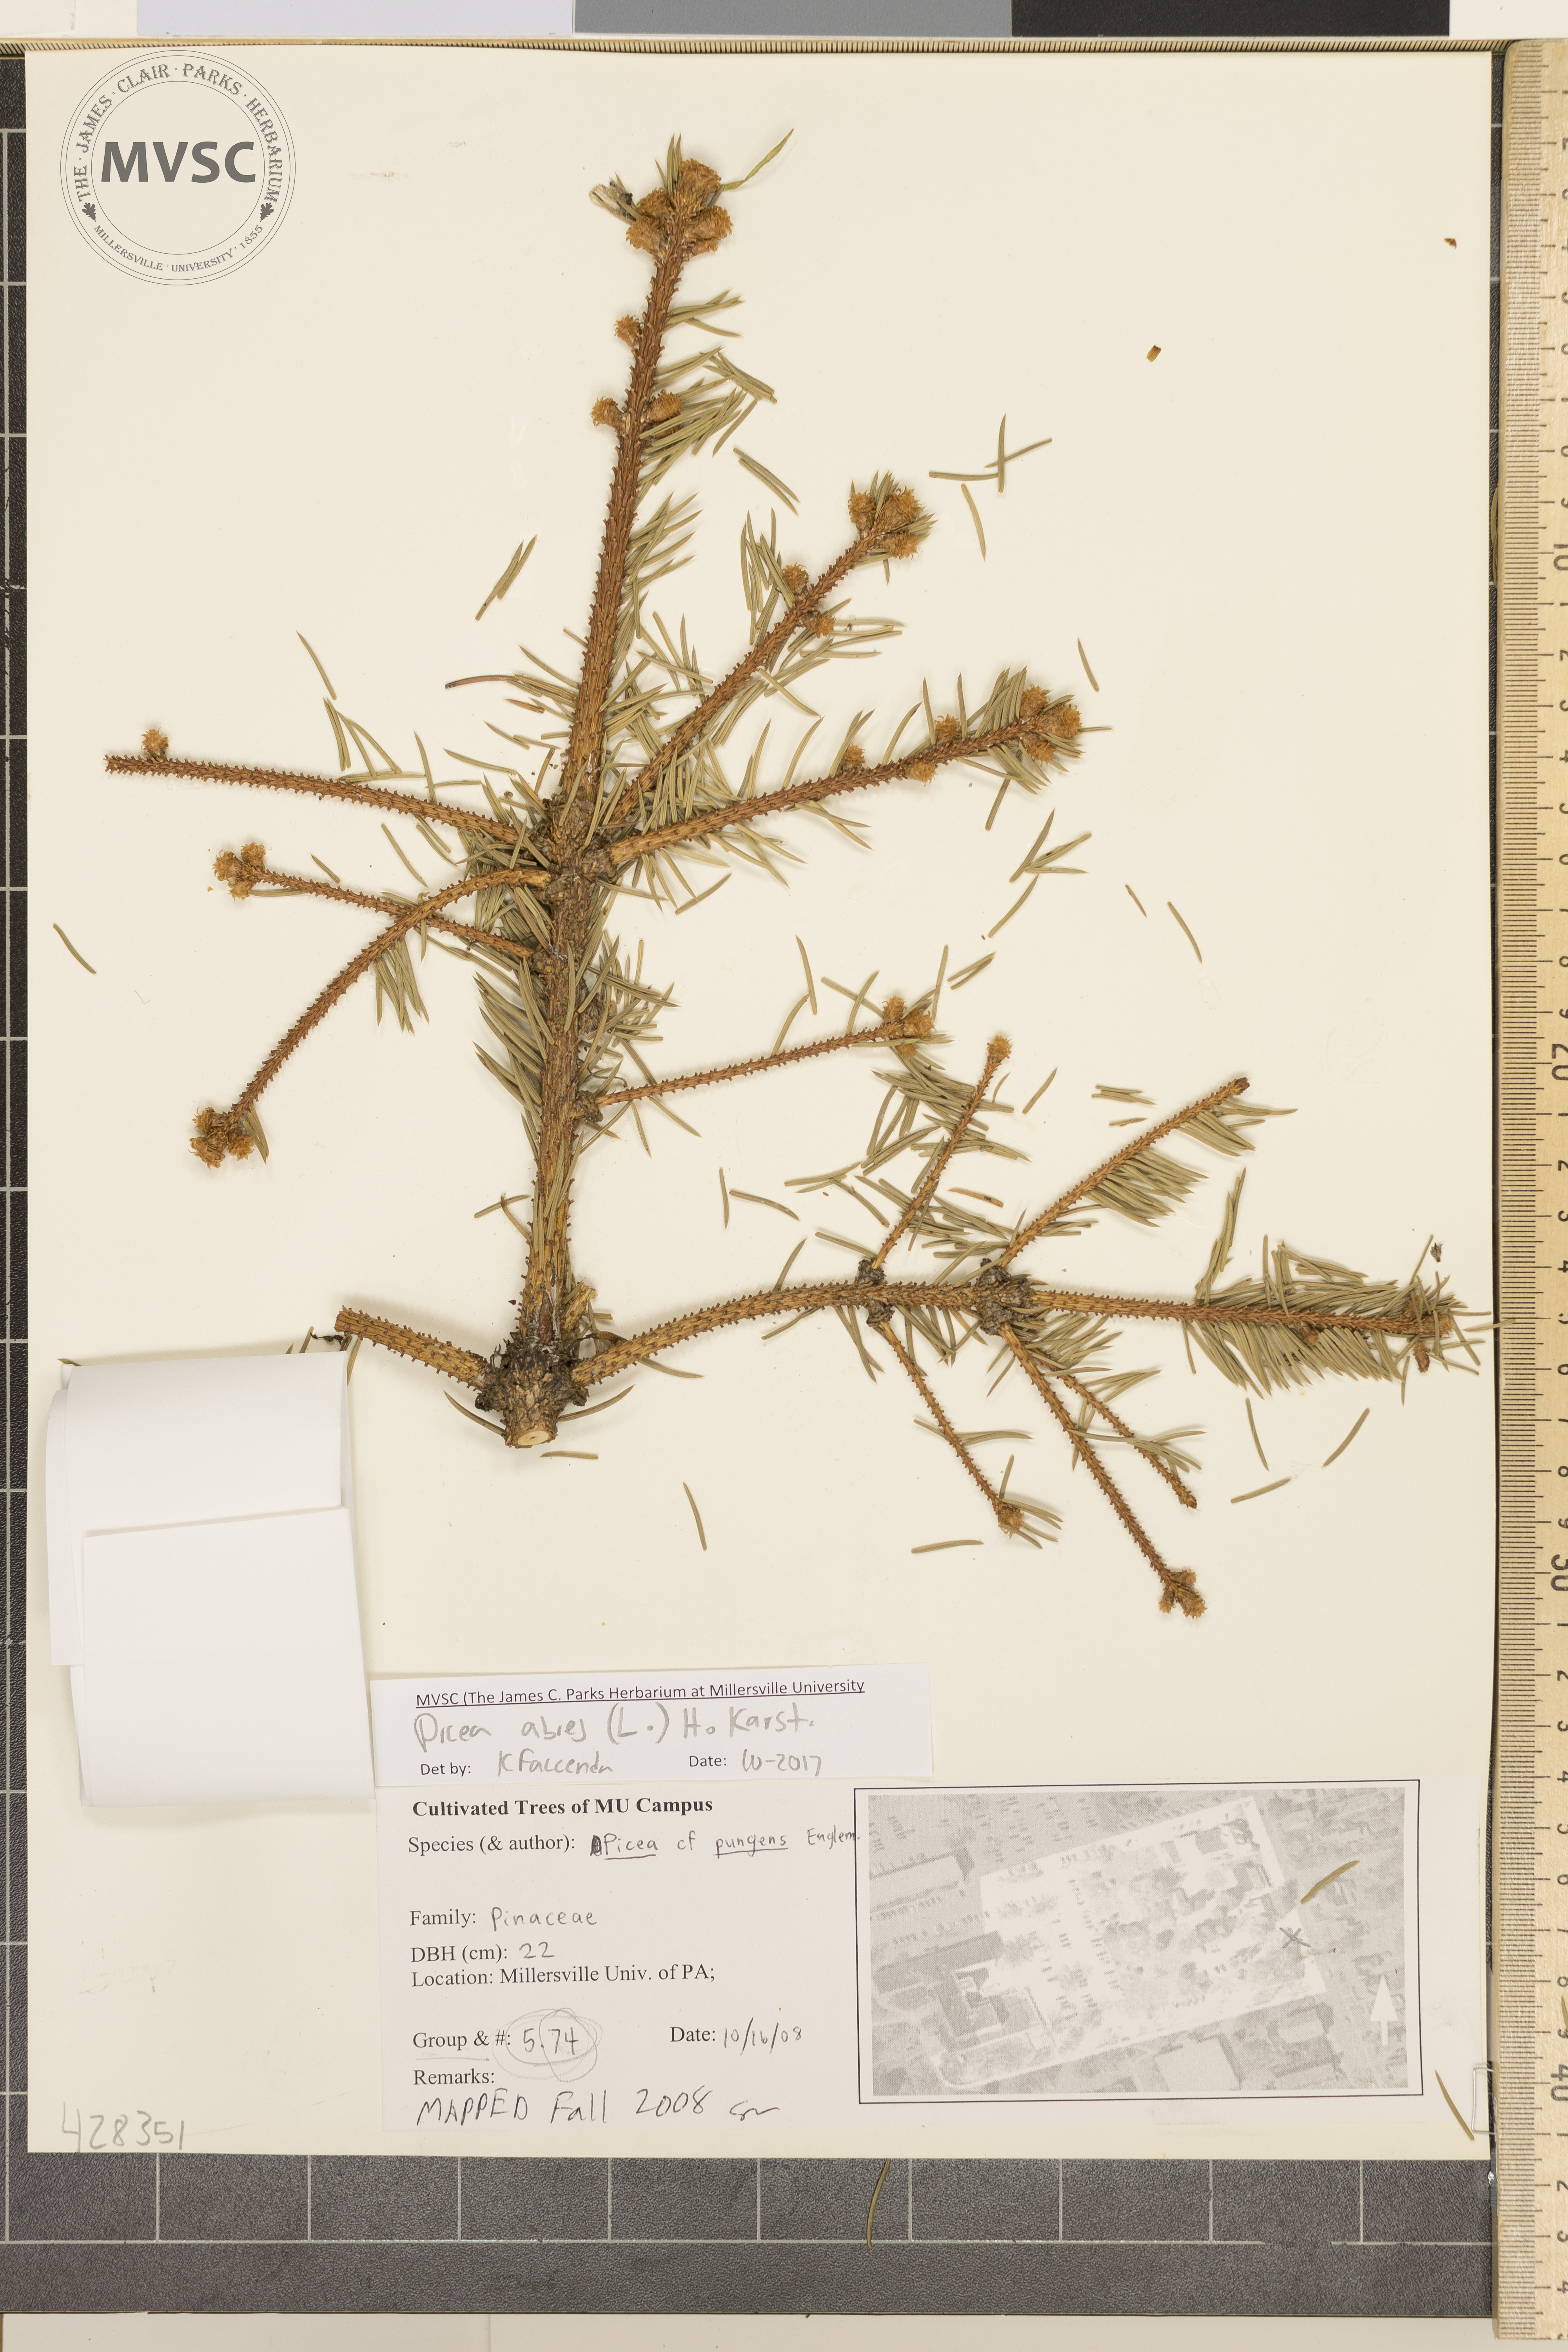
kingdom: Plantae
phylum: Tracheophyta
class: Pinopsida
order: Pinales
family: Pinaceae
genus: Picea
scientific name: Picea abies
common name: Norway spruce
